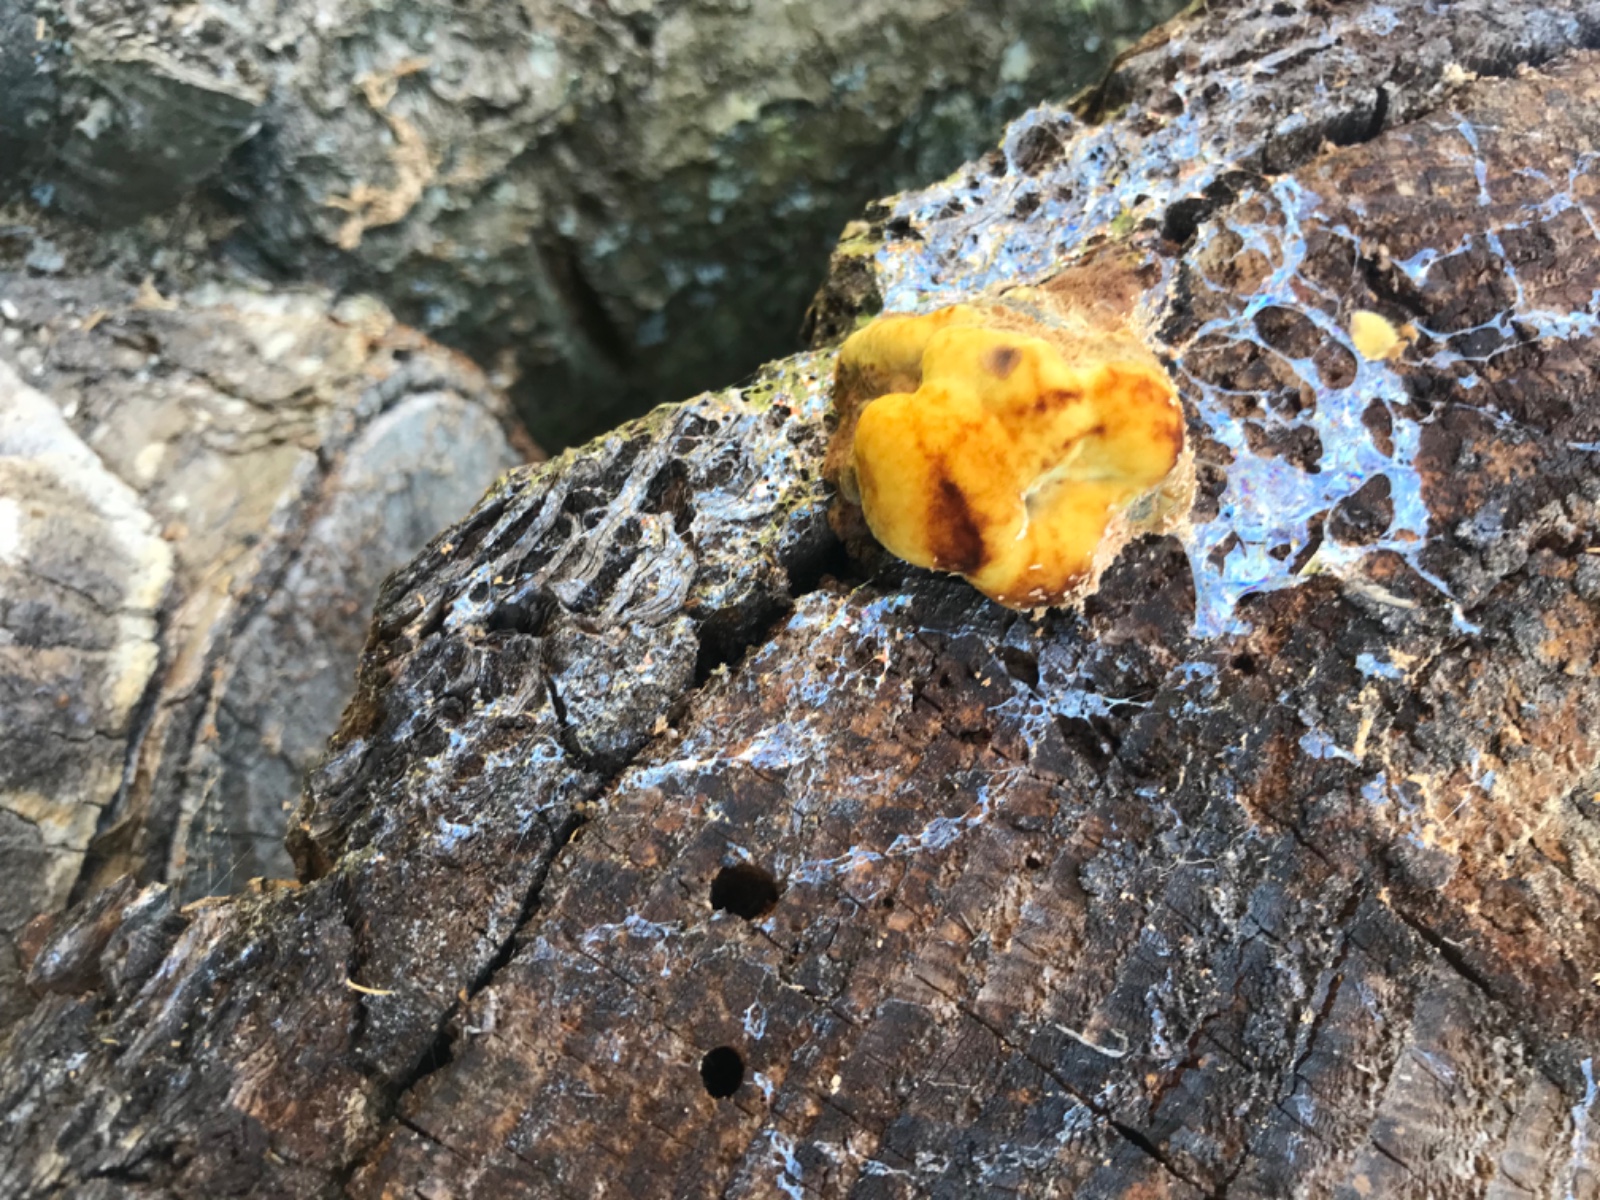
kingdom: Fungi
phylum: Basidiomycota
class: Agaricomycetes
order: Polyporales
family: Laetiporaceae
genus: Phaeolus
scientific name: Phaeolus schweinitzii
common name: brunporesvamp
